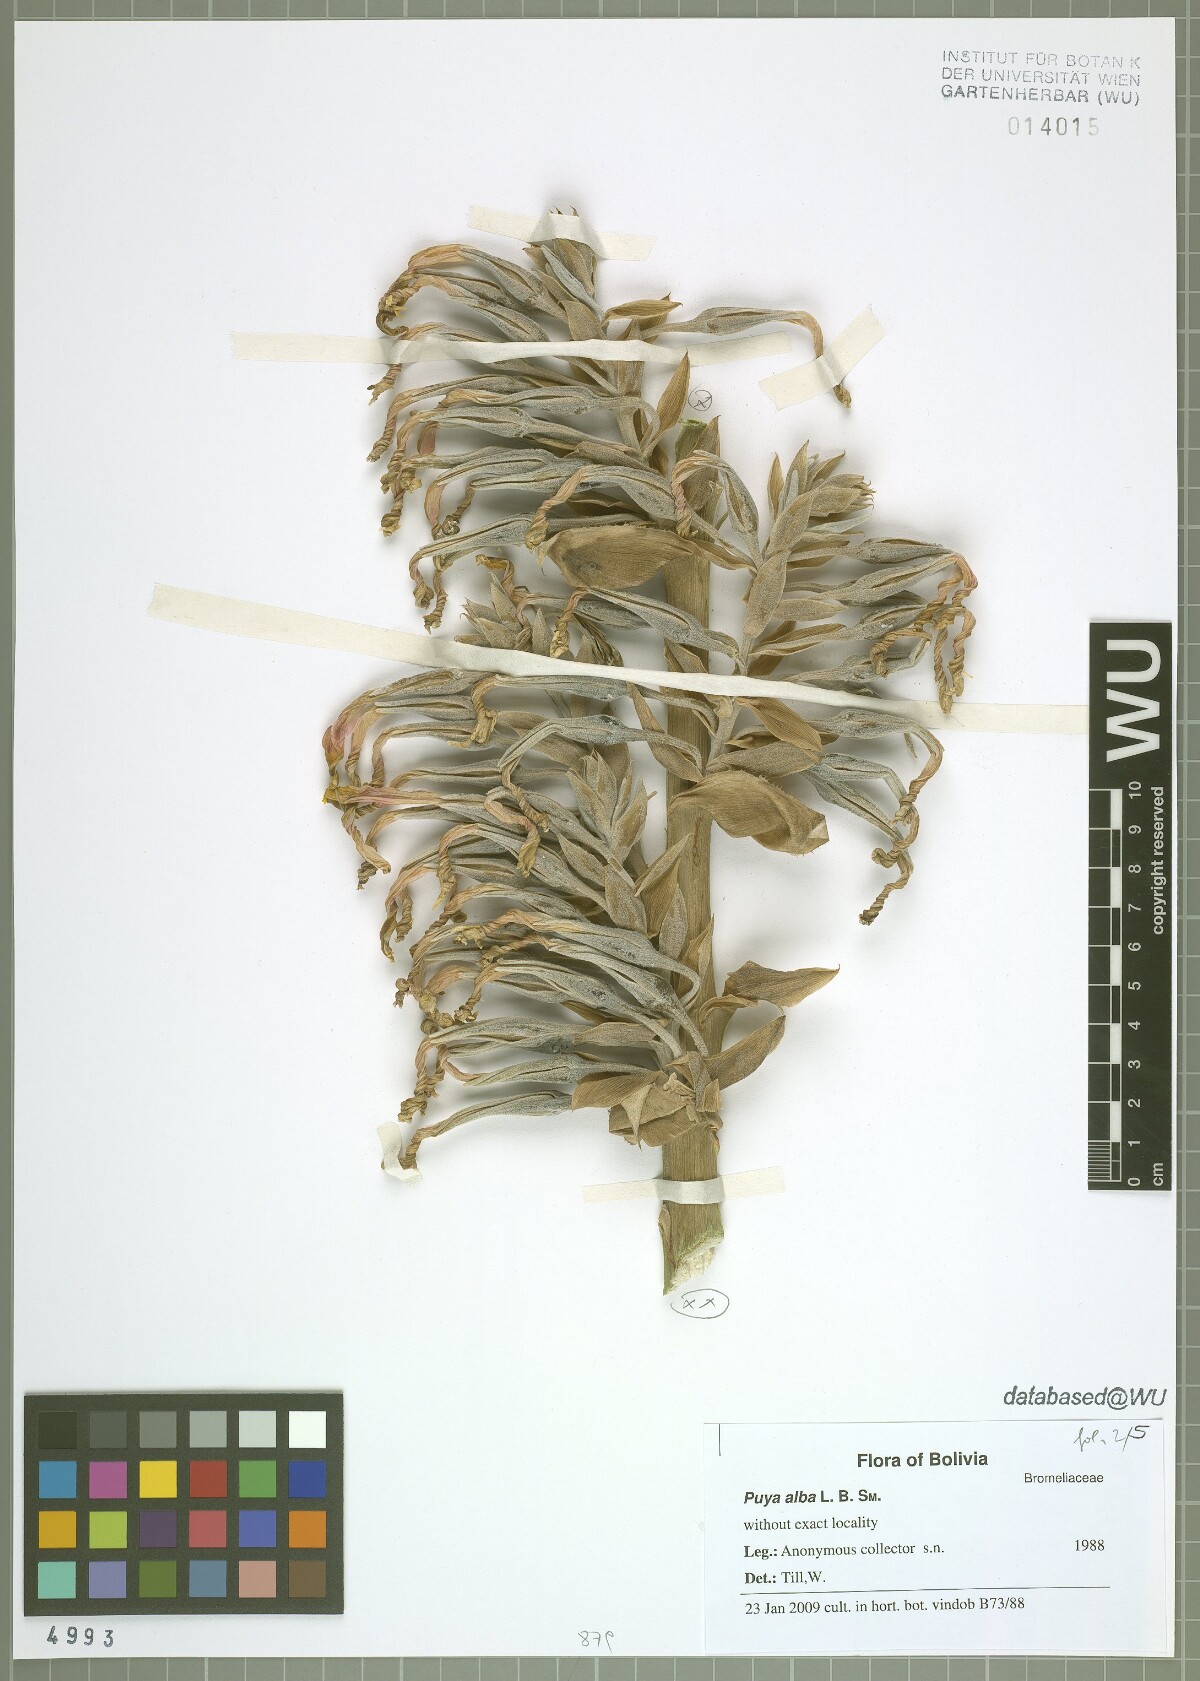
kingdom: Plantae
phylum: Tracheophyta
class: Liliopsida
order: Poales
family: Bromeliaceae
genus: Puya
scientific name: Puya alba
